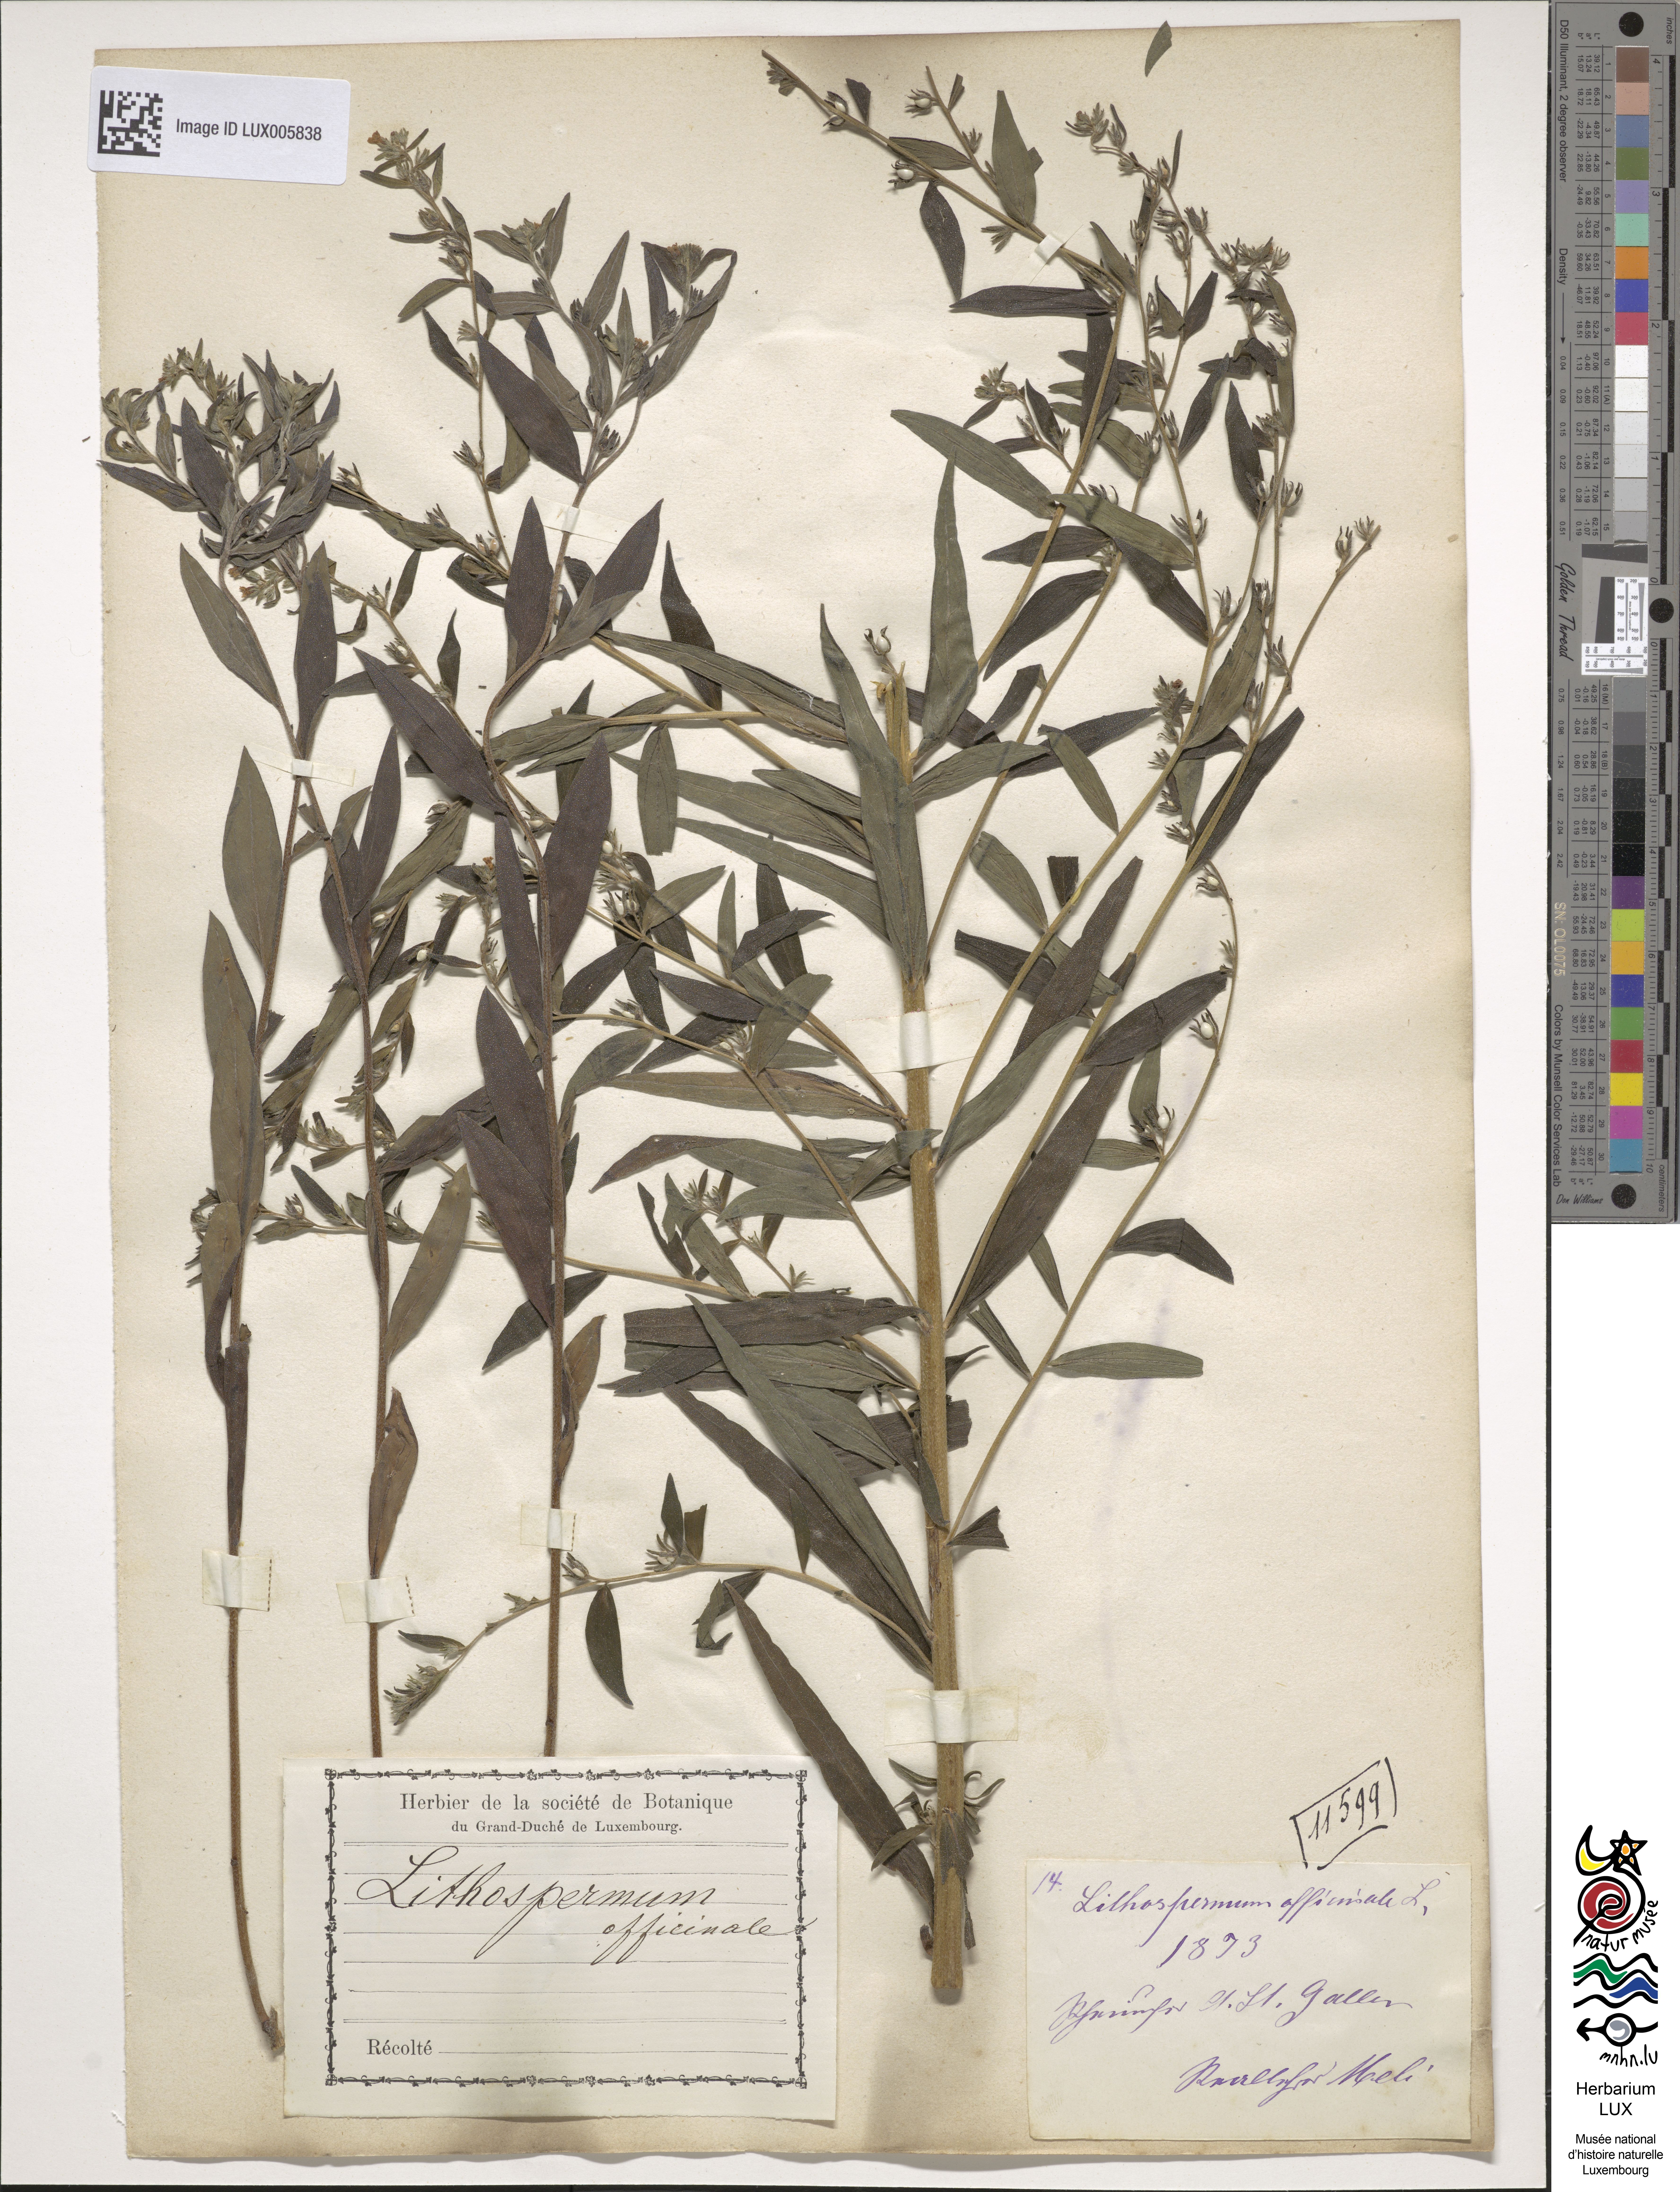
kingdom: Plantae
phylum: Tracheophyta
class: Magnoliopsida
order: Boraginales
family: Boraginaceae
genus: Lithospermum
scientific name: Lithospermum officinale
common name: Common gromwell
